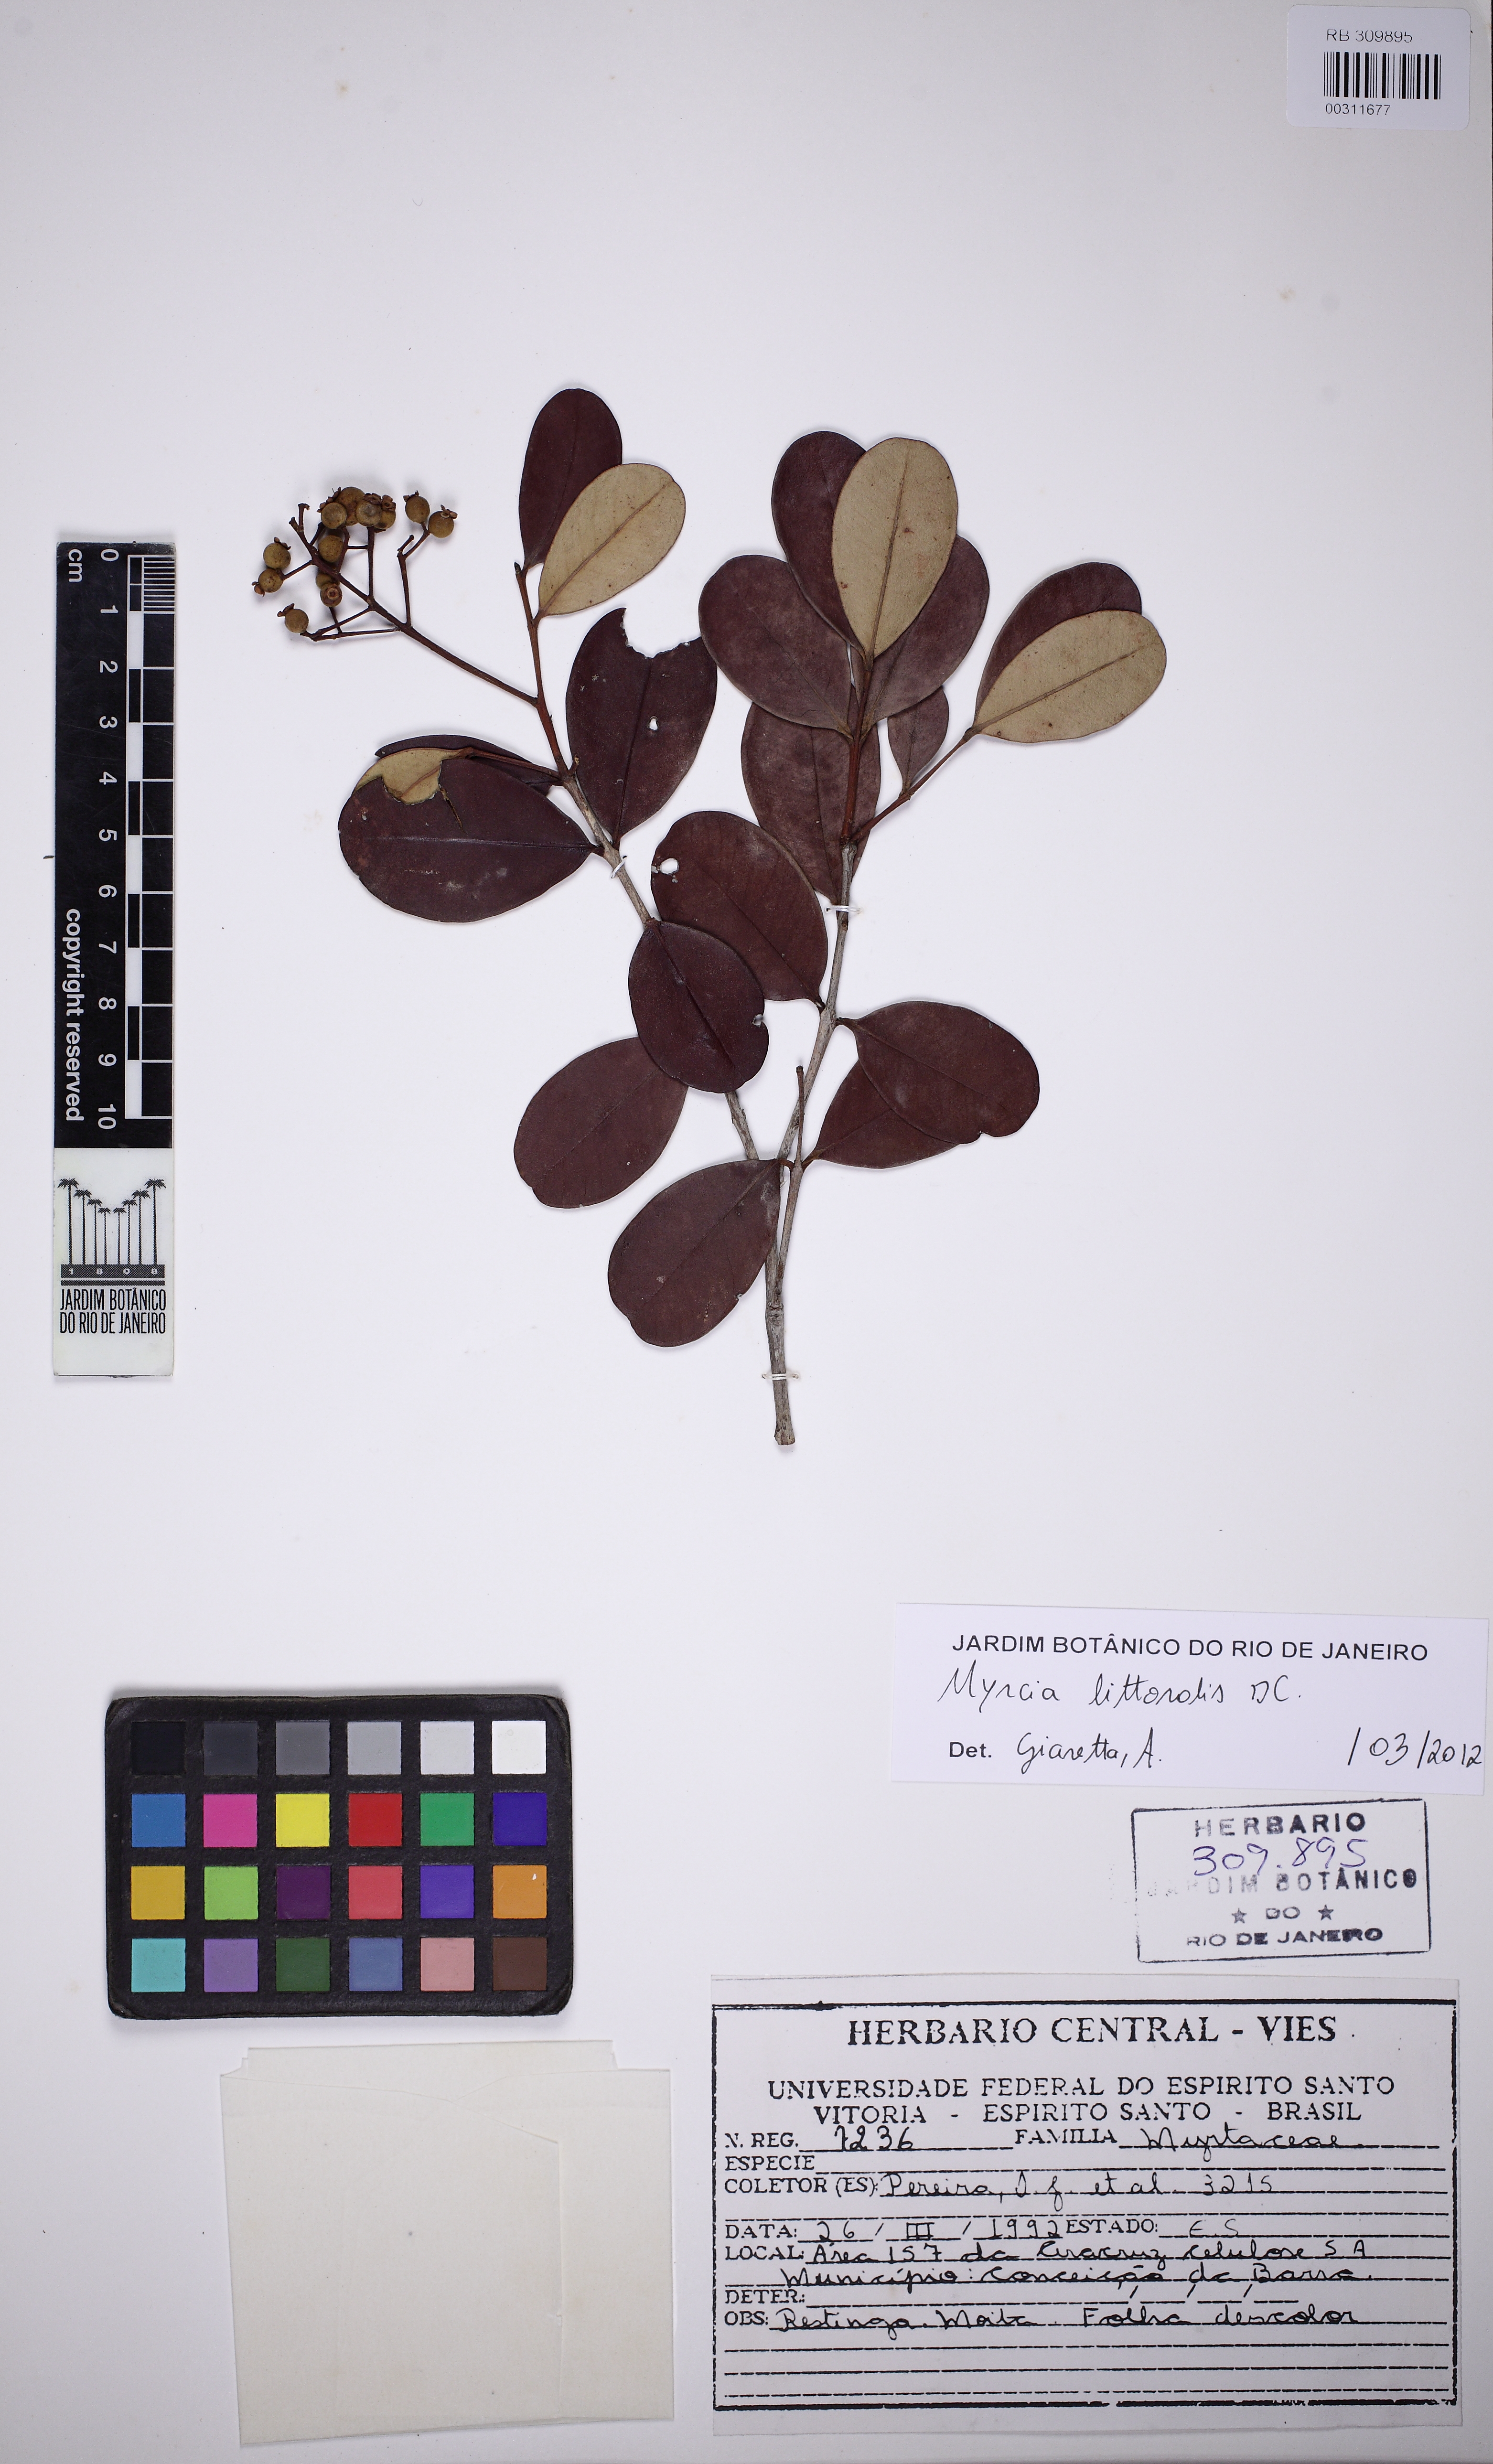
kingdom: Plantae
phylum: Tracheophyta
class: Magnoliopsida
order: Myrtales
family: Myrtaceae
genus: Myrcia
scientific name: Myrcia littoralis
